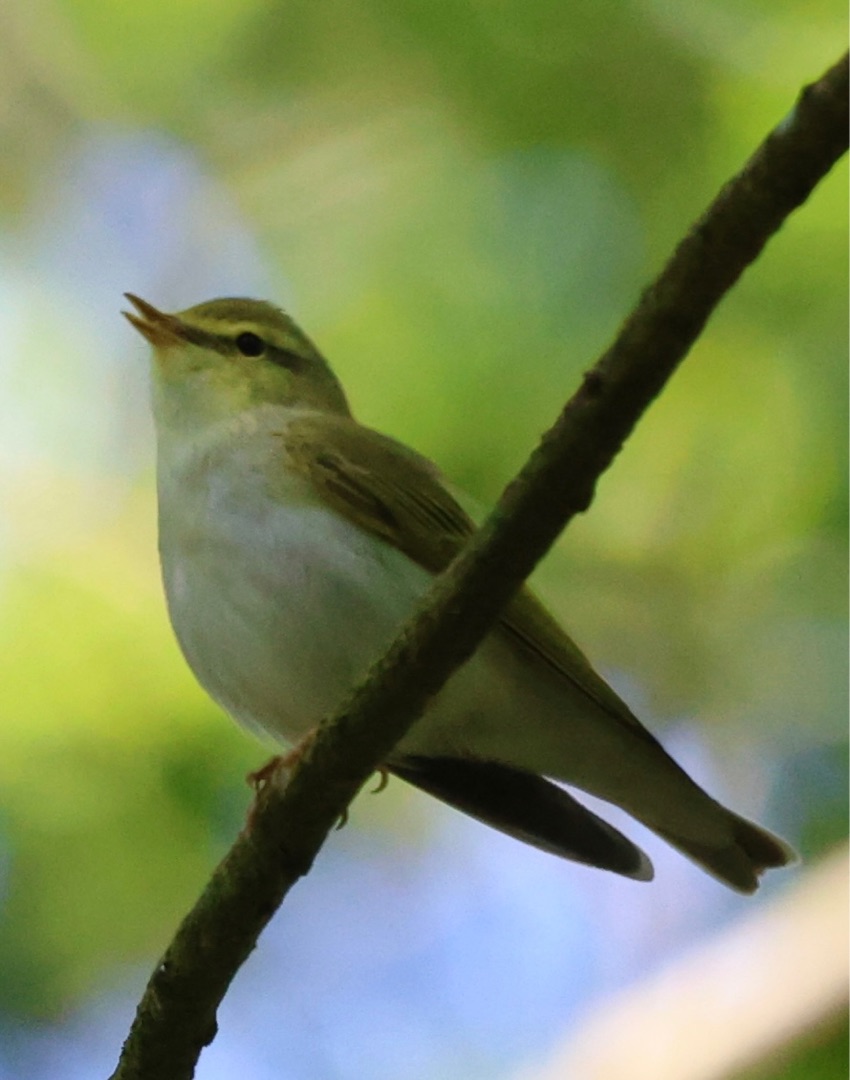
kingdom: Animalia
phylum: Chordata
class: Aves
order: Passeriformes
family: Phylloscopidae
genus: Phylloscopus
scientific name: Phylloscopus sibillatrix
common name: Skovsanger
